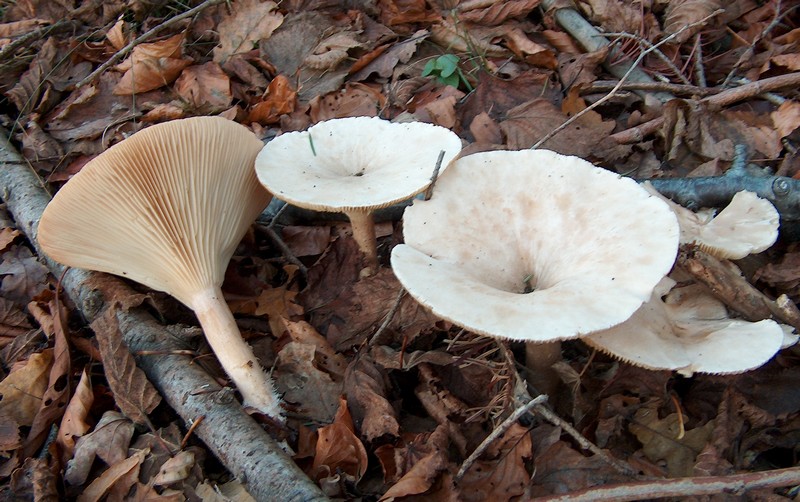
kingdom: Fungi
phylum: Basidiomycota
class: Agaricomycetes
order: Agaricales
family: Tricholomataceae
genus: Infundibulicybe
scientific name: Infundibulicybe geotropa
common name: stor tragthat
